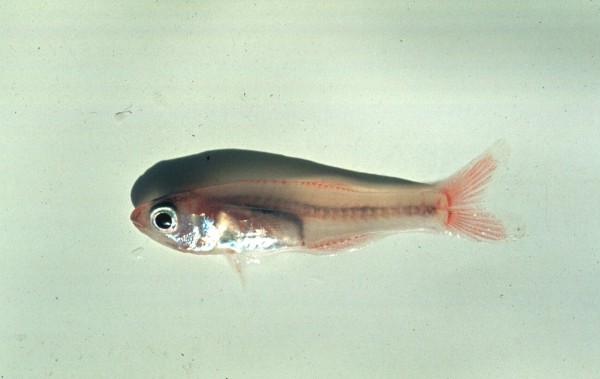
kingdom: Animalia
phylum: Chordata
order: Perciformes
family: Apogonidae
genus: Gymnapogon
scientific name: Gymnapogon africanus
